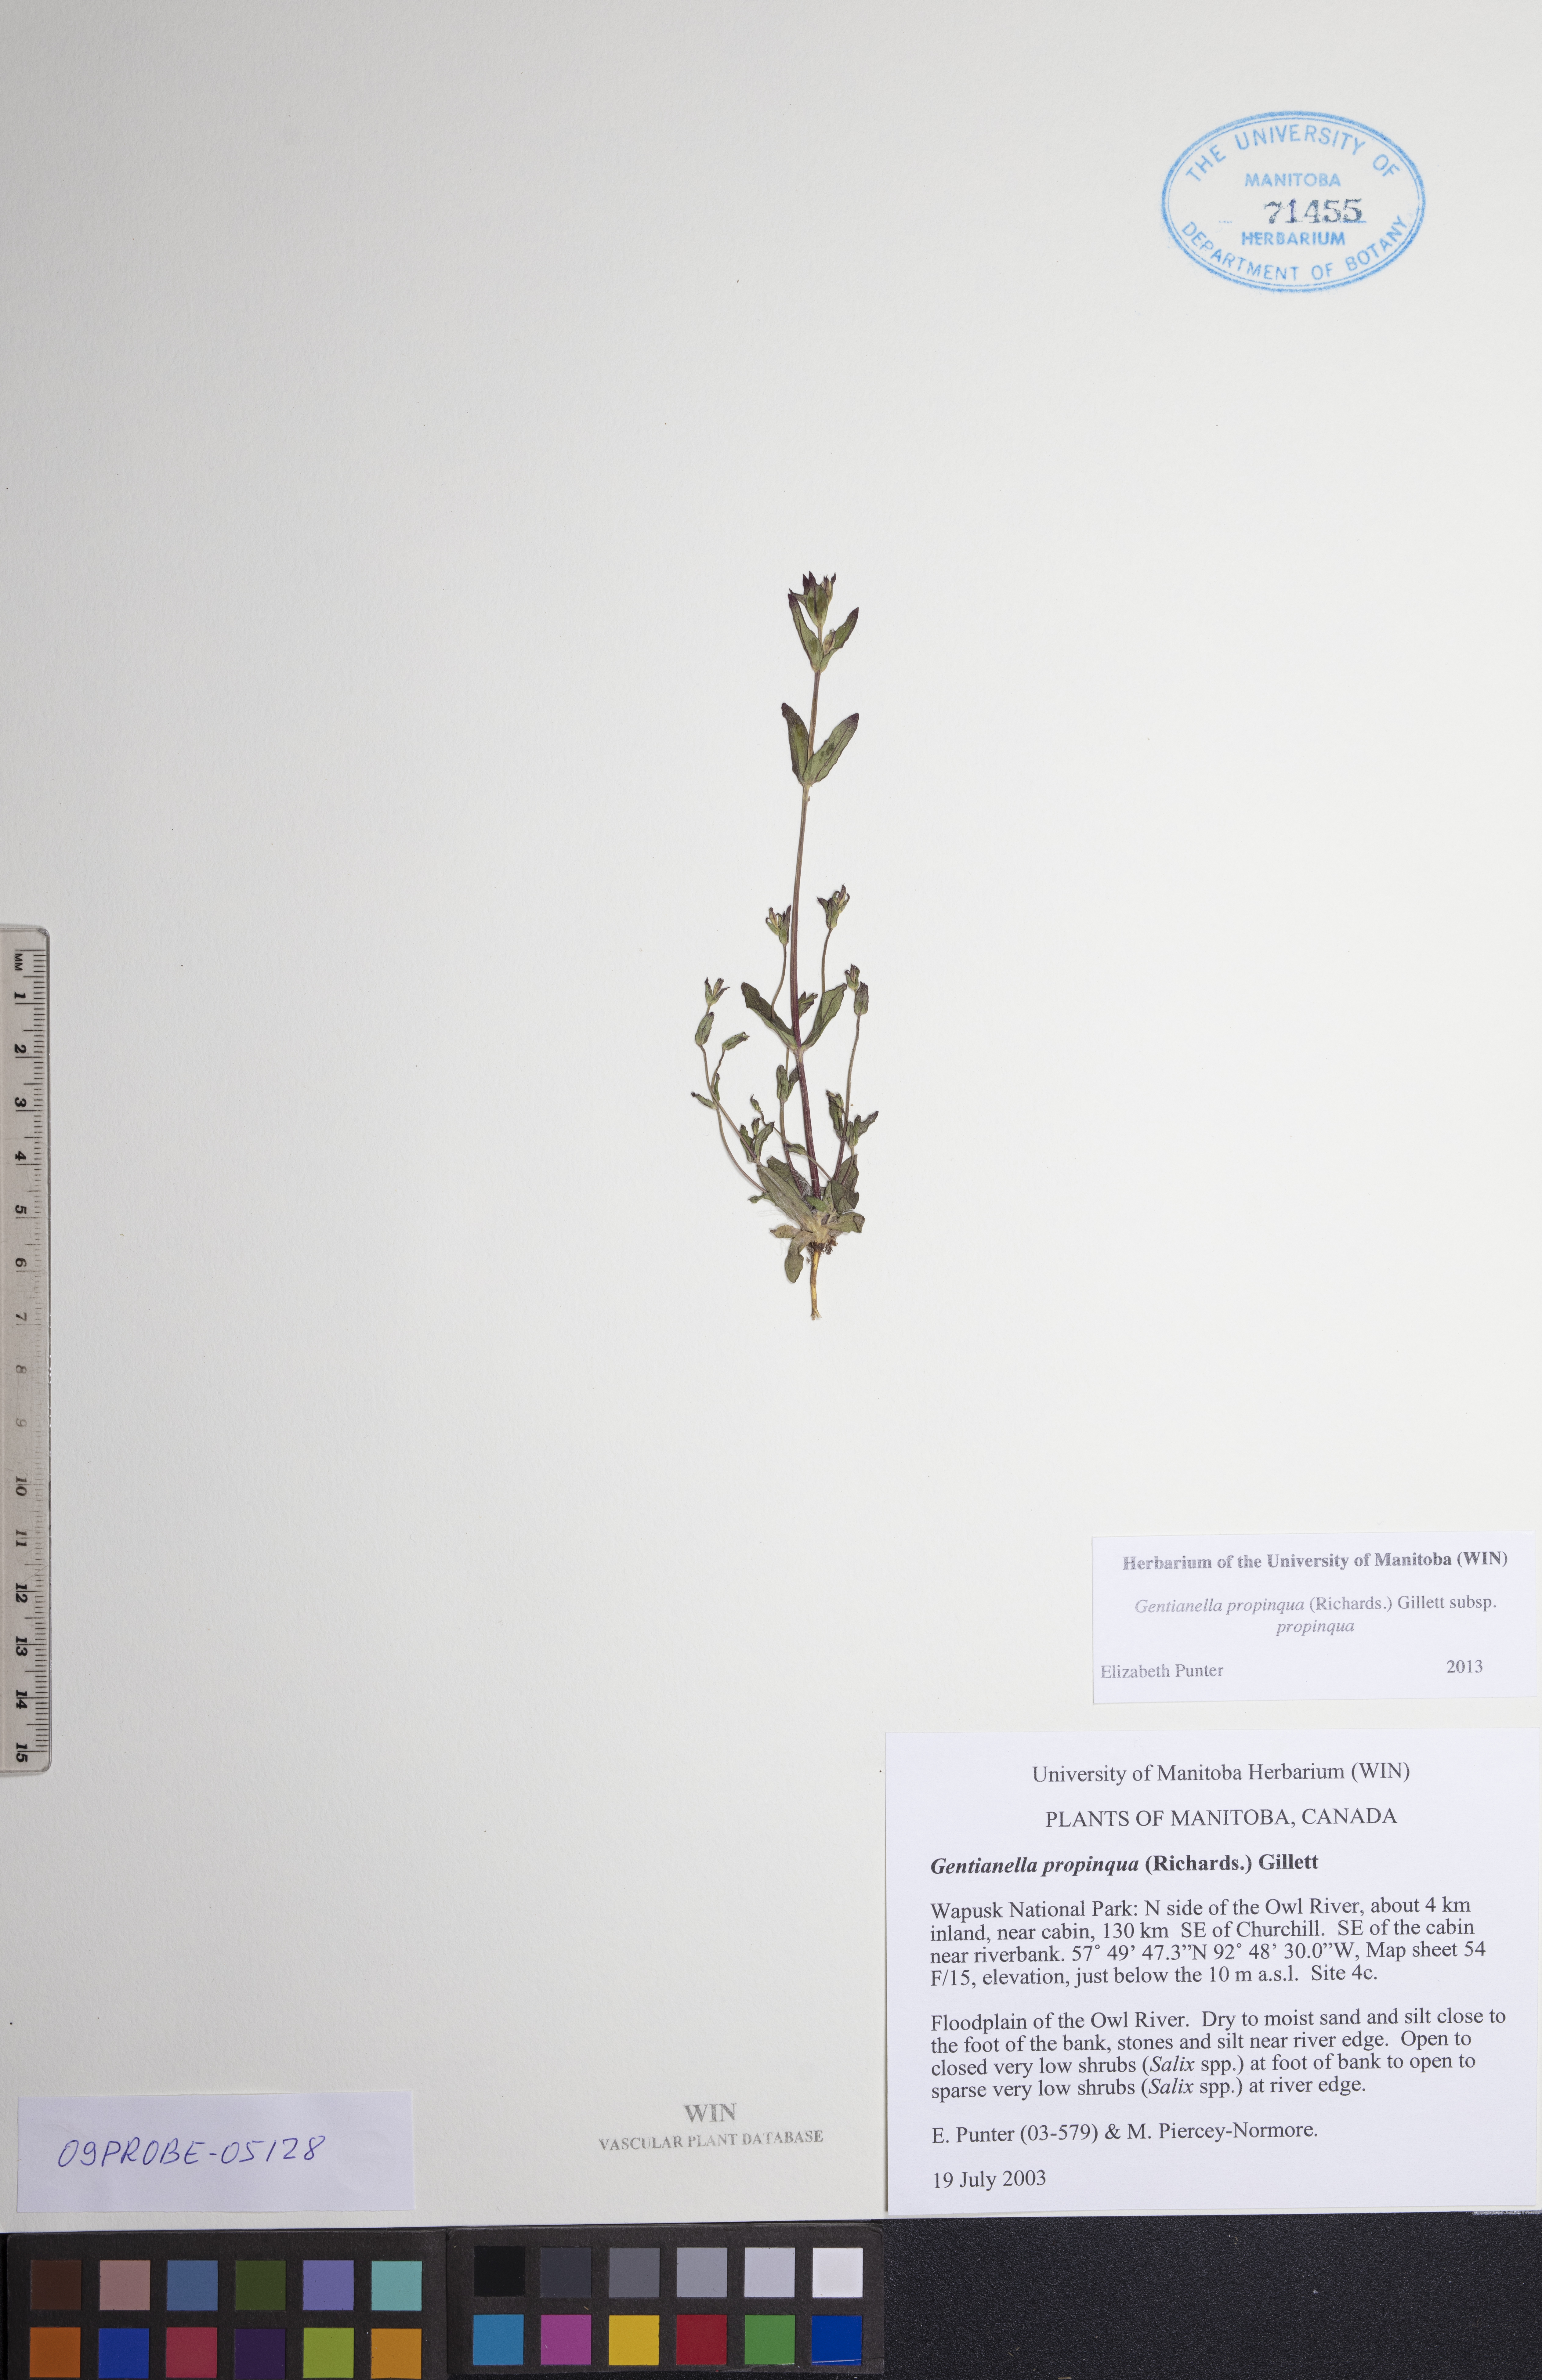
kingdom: Plantae
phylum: Tracheophyta
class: Magnoliopsida
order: Gentianales
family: Gentianaceae
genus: Gentianella
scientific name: Gentianella propinqua
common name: Four-parted dwarf-gentian
